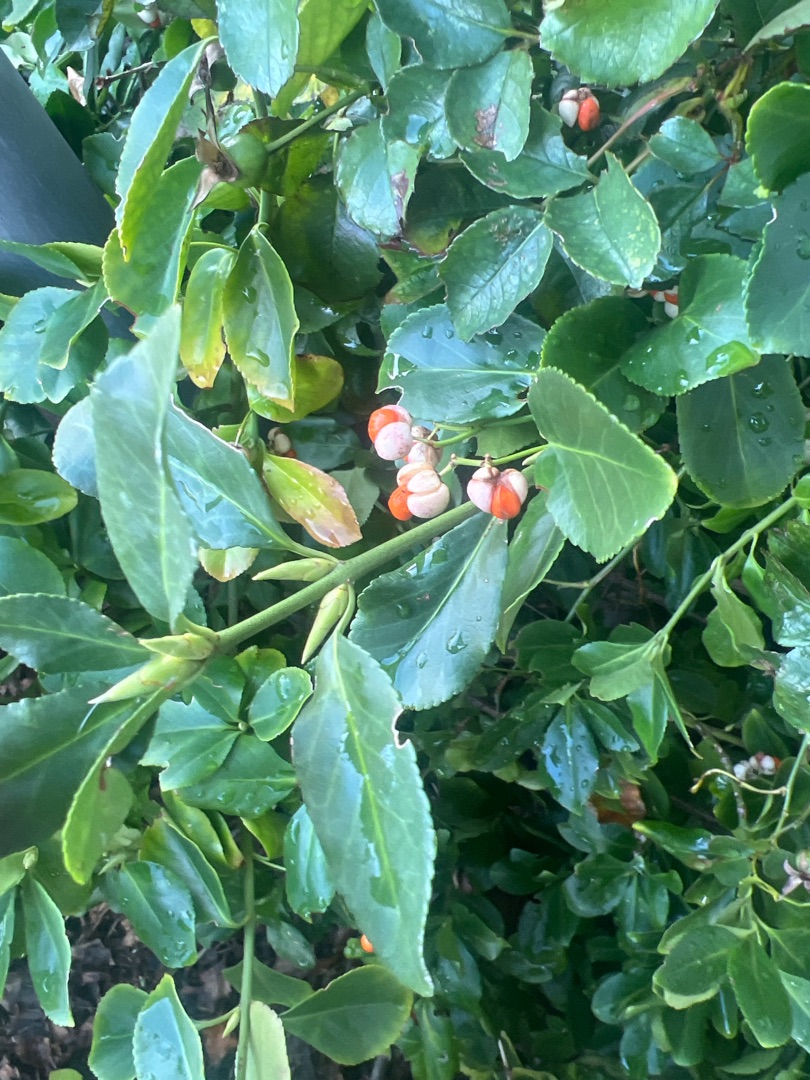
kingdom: Plantae
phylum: Tracheophyta
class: Magnoliopsida
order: Celastrales
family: Celastraceae
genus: Euonymus
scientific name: Euonymus japonicus
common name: Japansk benved
